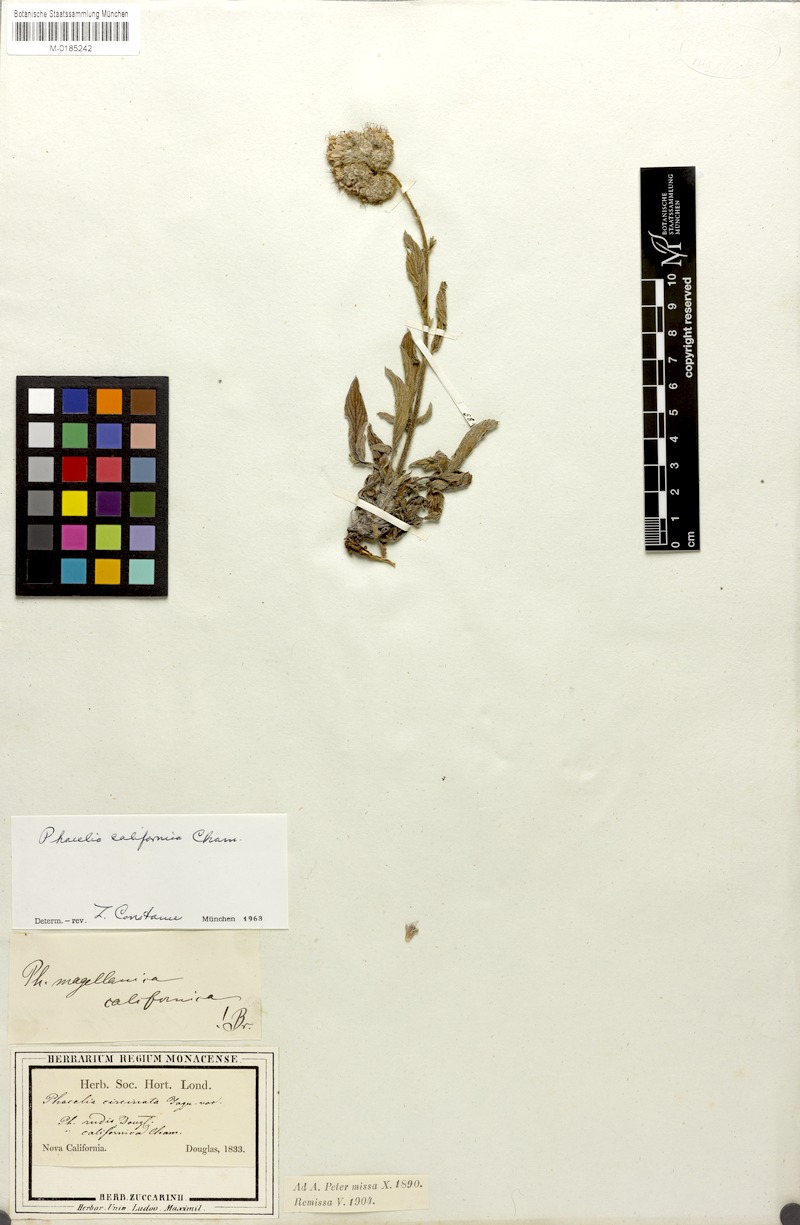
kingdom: Plantae
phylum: Tracheophyta
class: Magnoliopsida
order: Boraginales
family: Hydrophyllaceae
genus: Phacelia
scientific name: Phacelia californica
